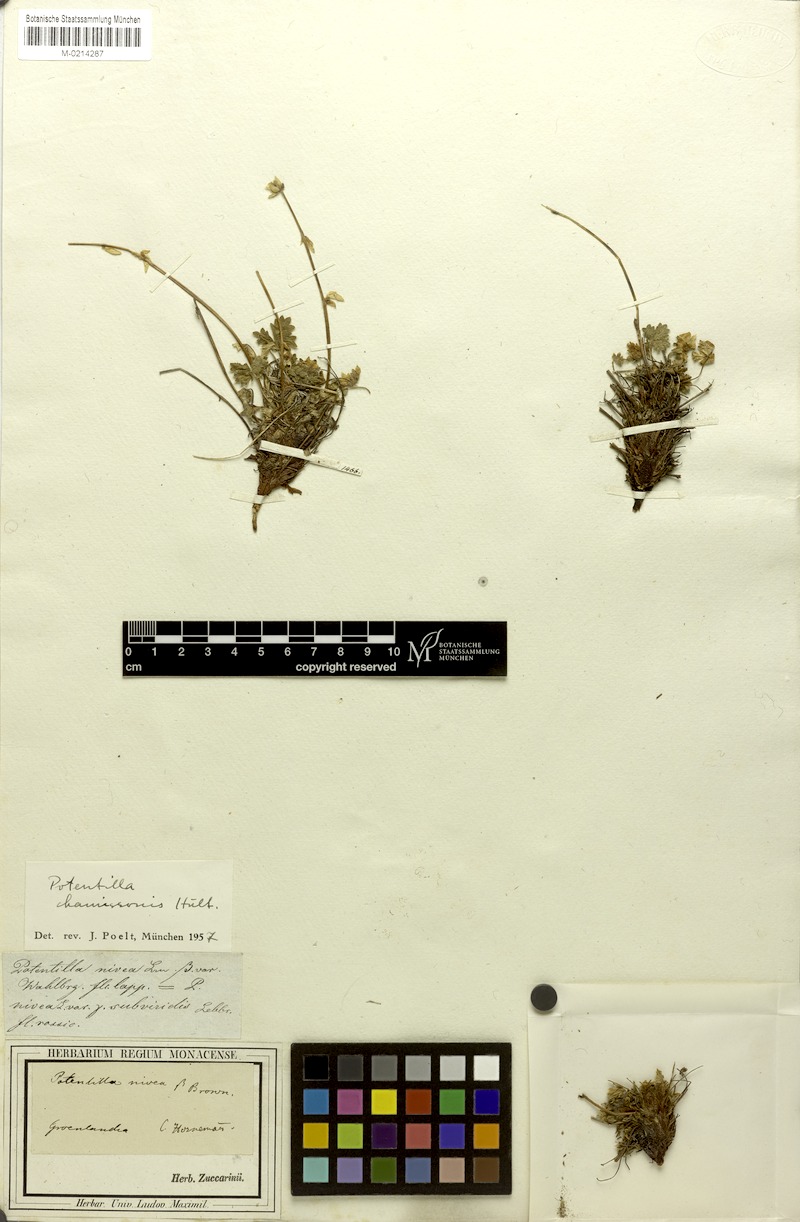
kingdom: Plantae
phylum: Tracheophyta
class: Magnoliopsida
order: Rosales
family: Rosaceae
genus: Potentilla
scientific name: Potentilla chamissonis
